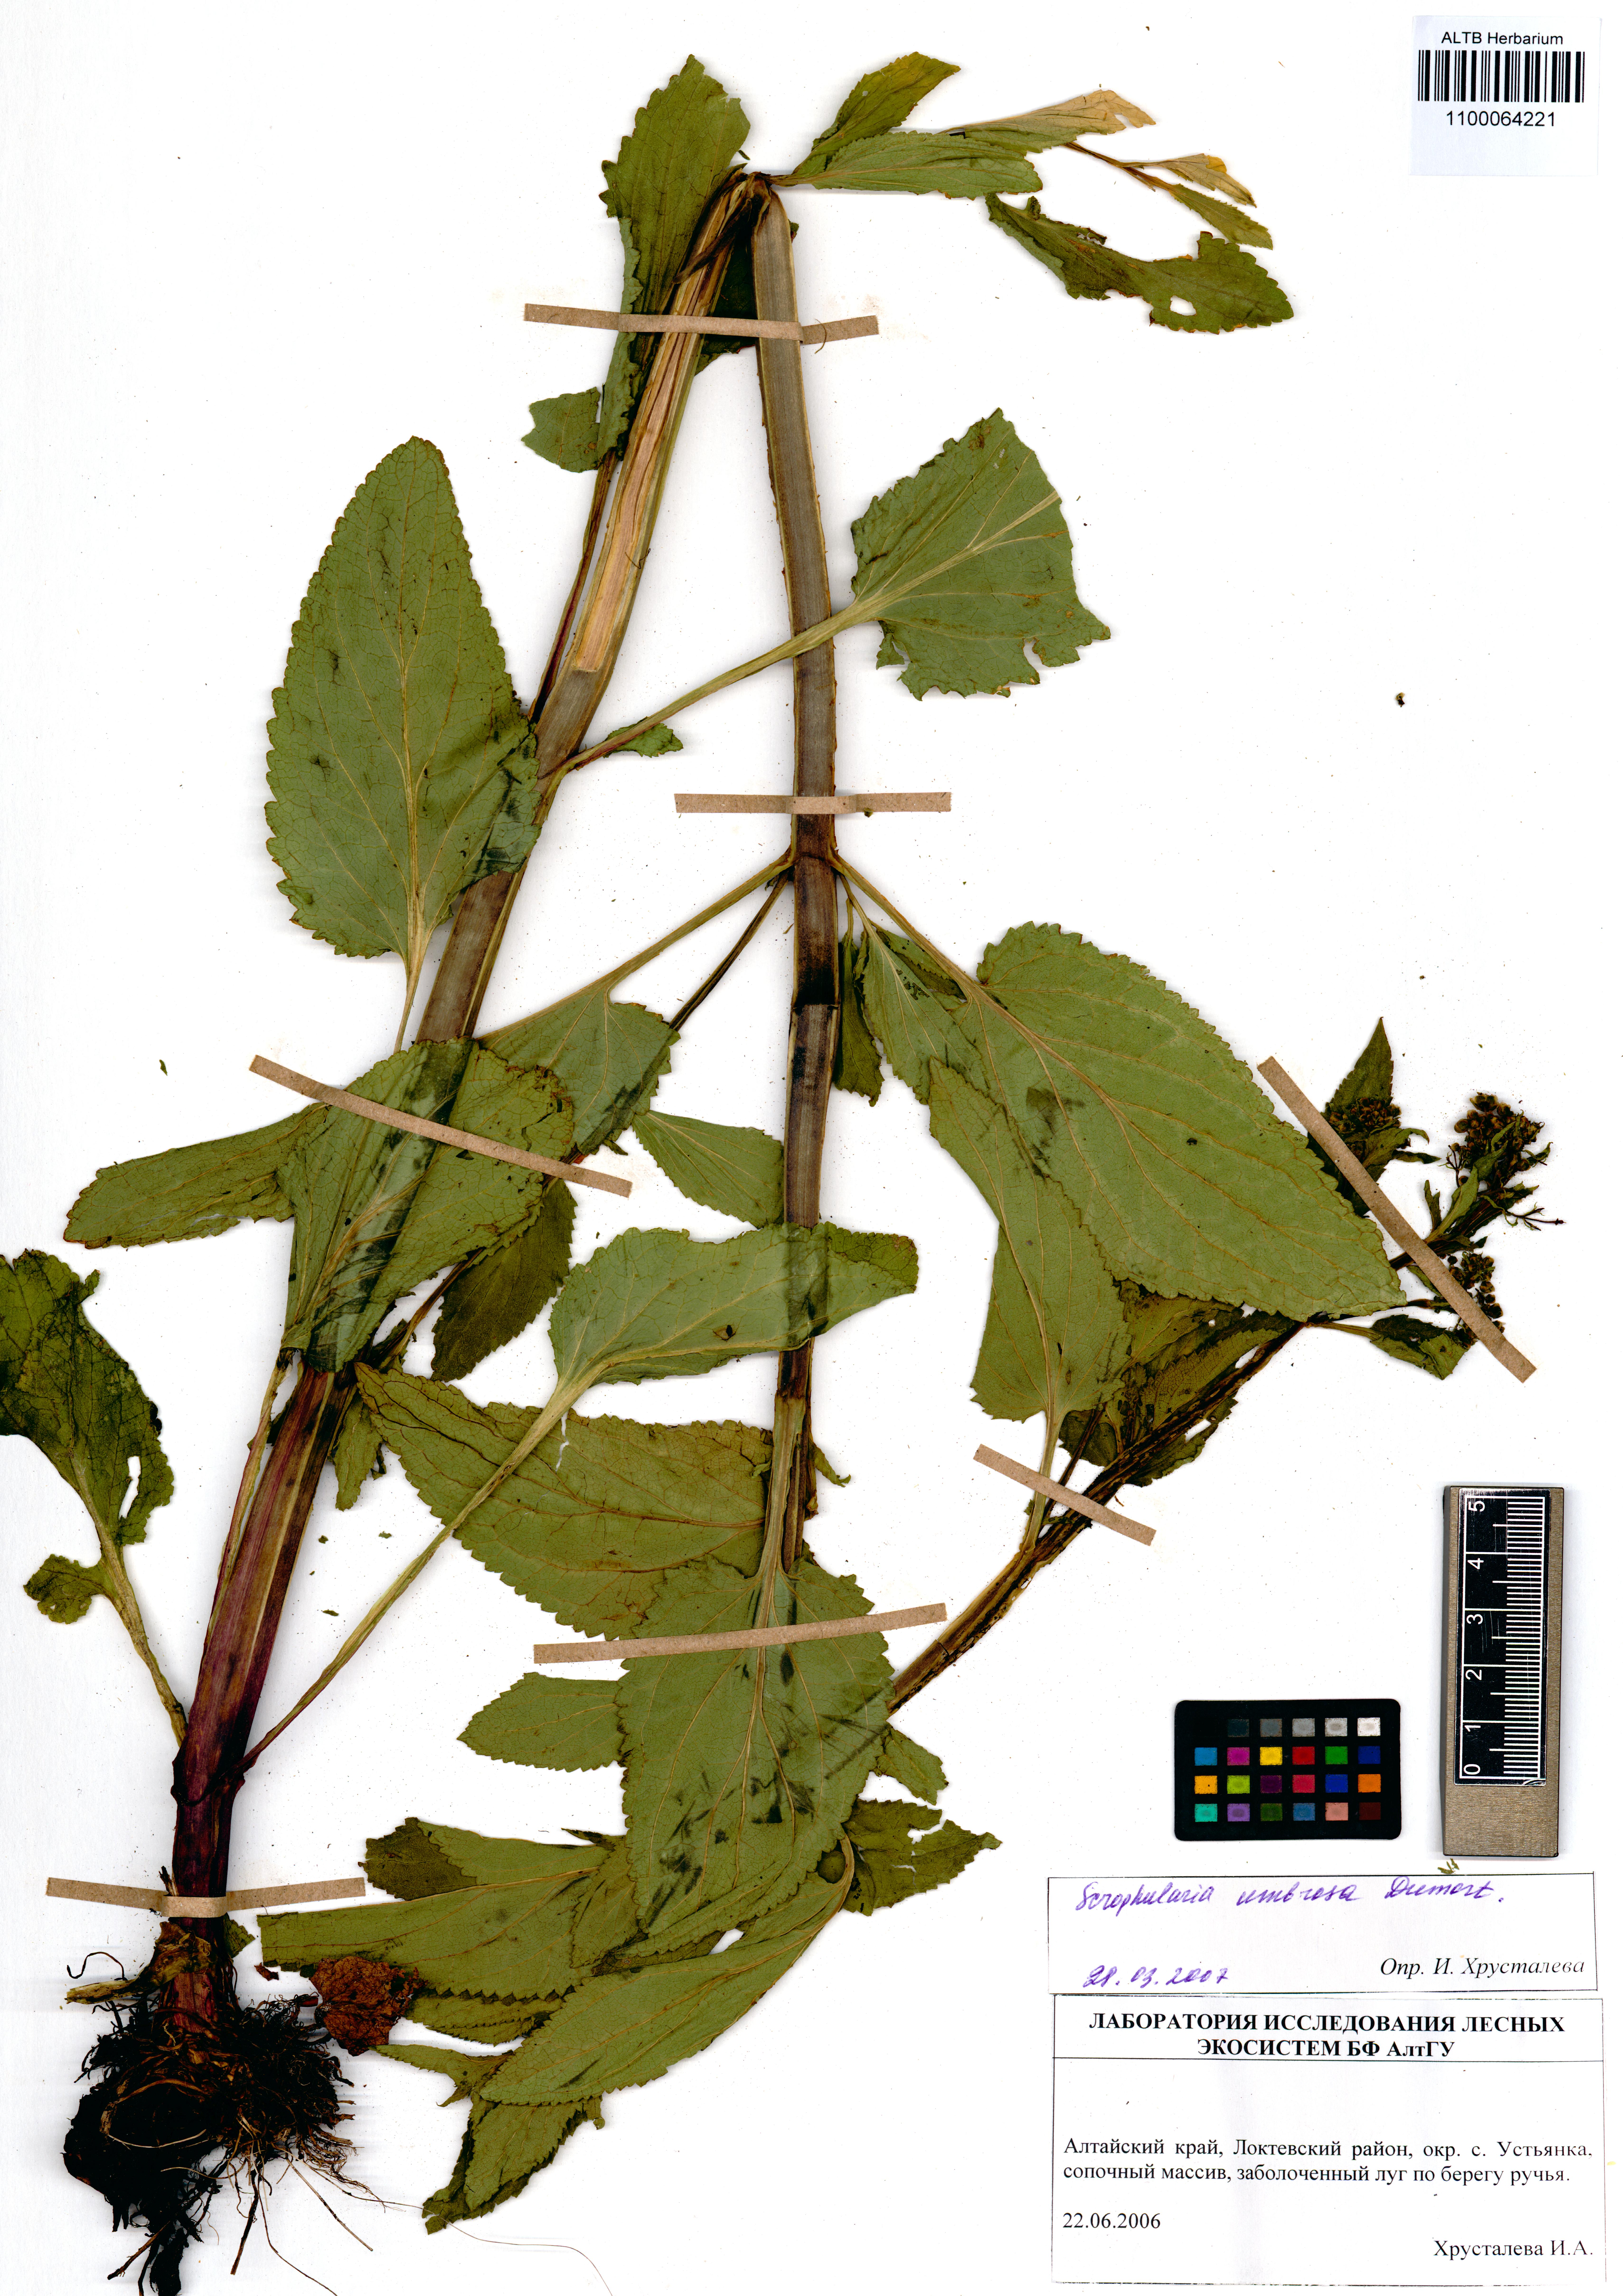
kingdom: Plantae
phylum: Tracheophyta
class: Magnoliopsida
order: Lamiales
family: Scrophulariaceae
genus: Scrophularia
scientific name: Scrophularia umbrosa
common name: Green figwort
